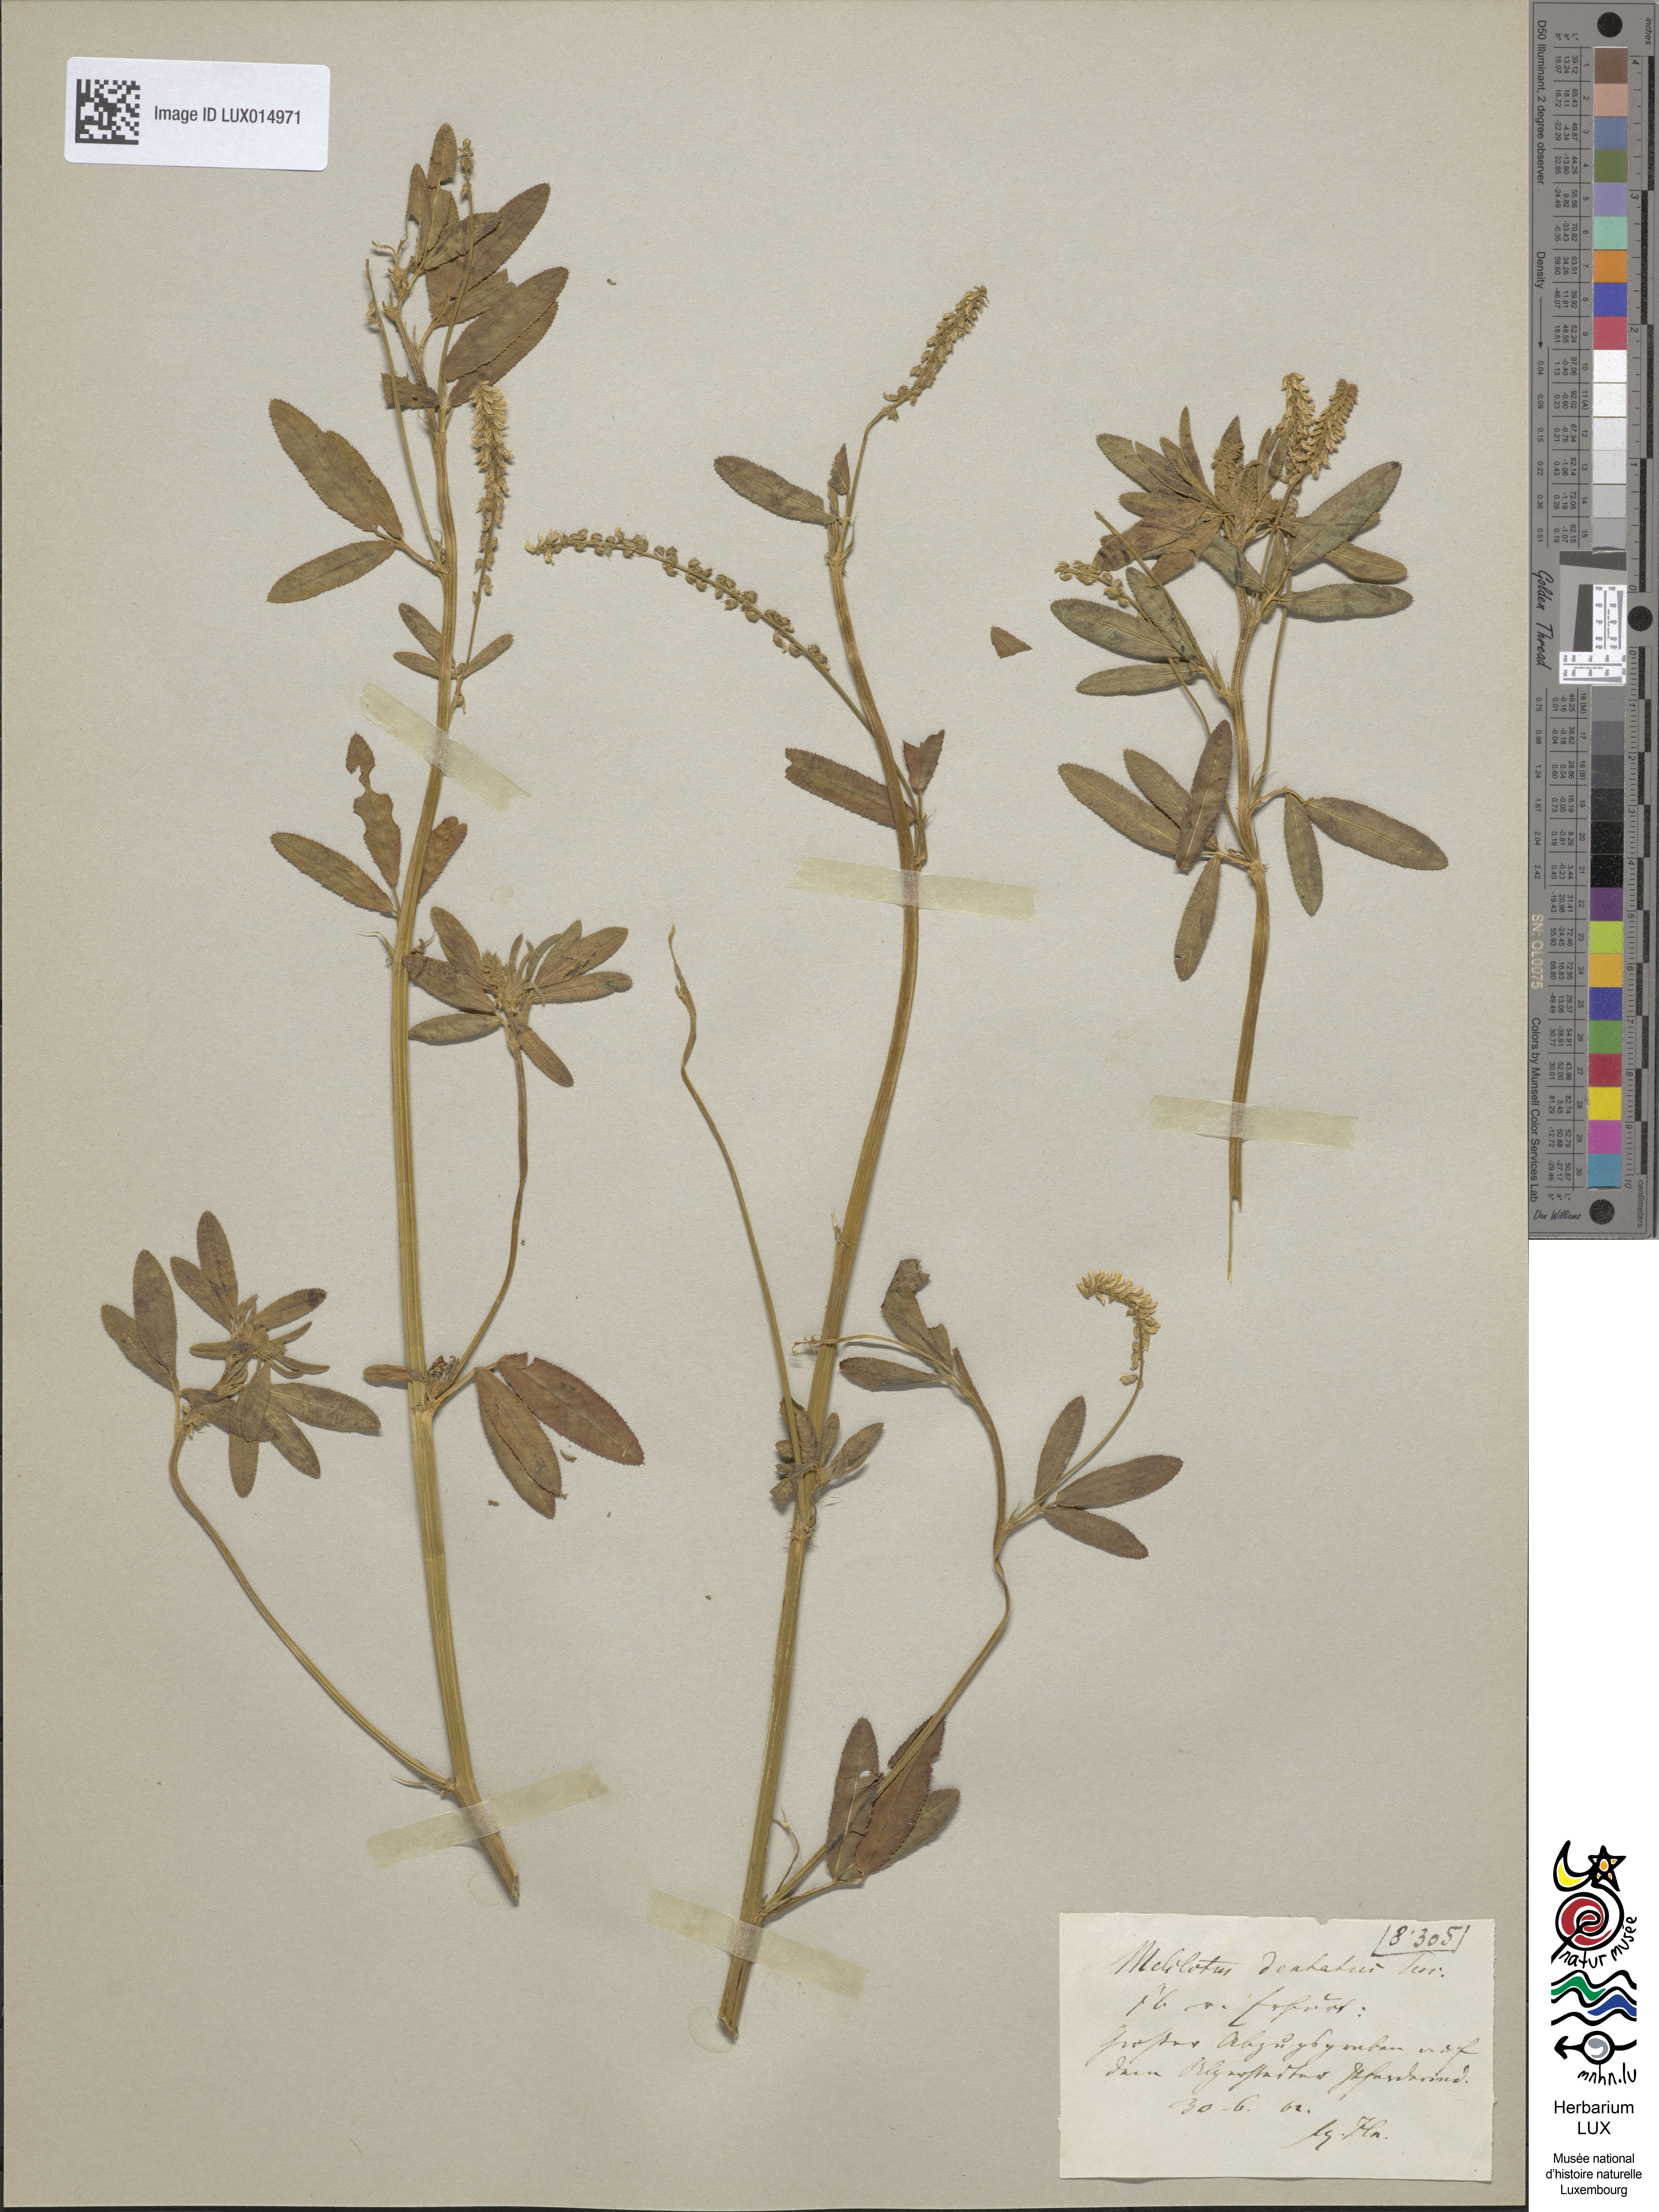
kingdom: Plantae
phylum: Tracheophyta
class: Magnoliopsida
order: Fabales
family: Fabaceae
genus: Melilotus
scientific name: Melilotus dentatus
